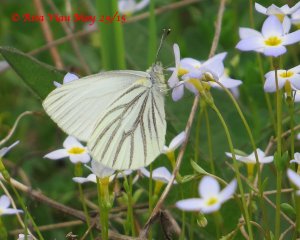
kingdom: Animalia
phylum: Arthropoda
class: Insecta
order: Lepidoptera
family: Pieridae
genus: Pieris
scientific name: Pieris oleracea
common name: Mustard White
